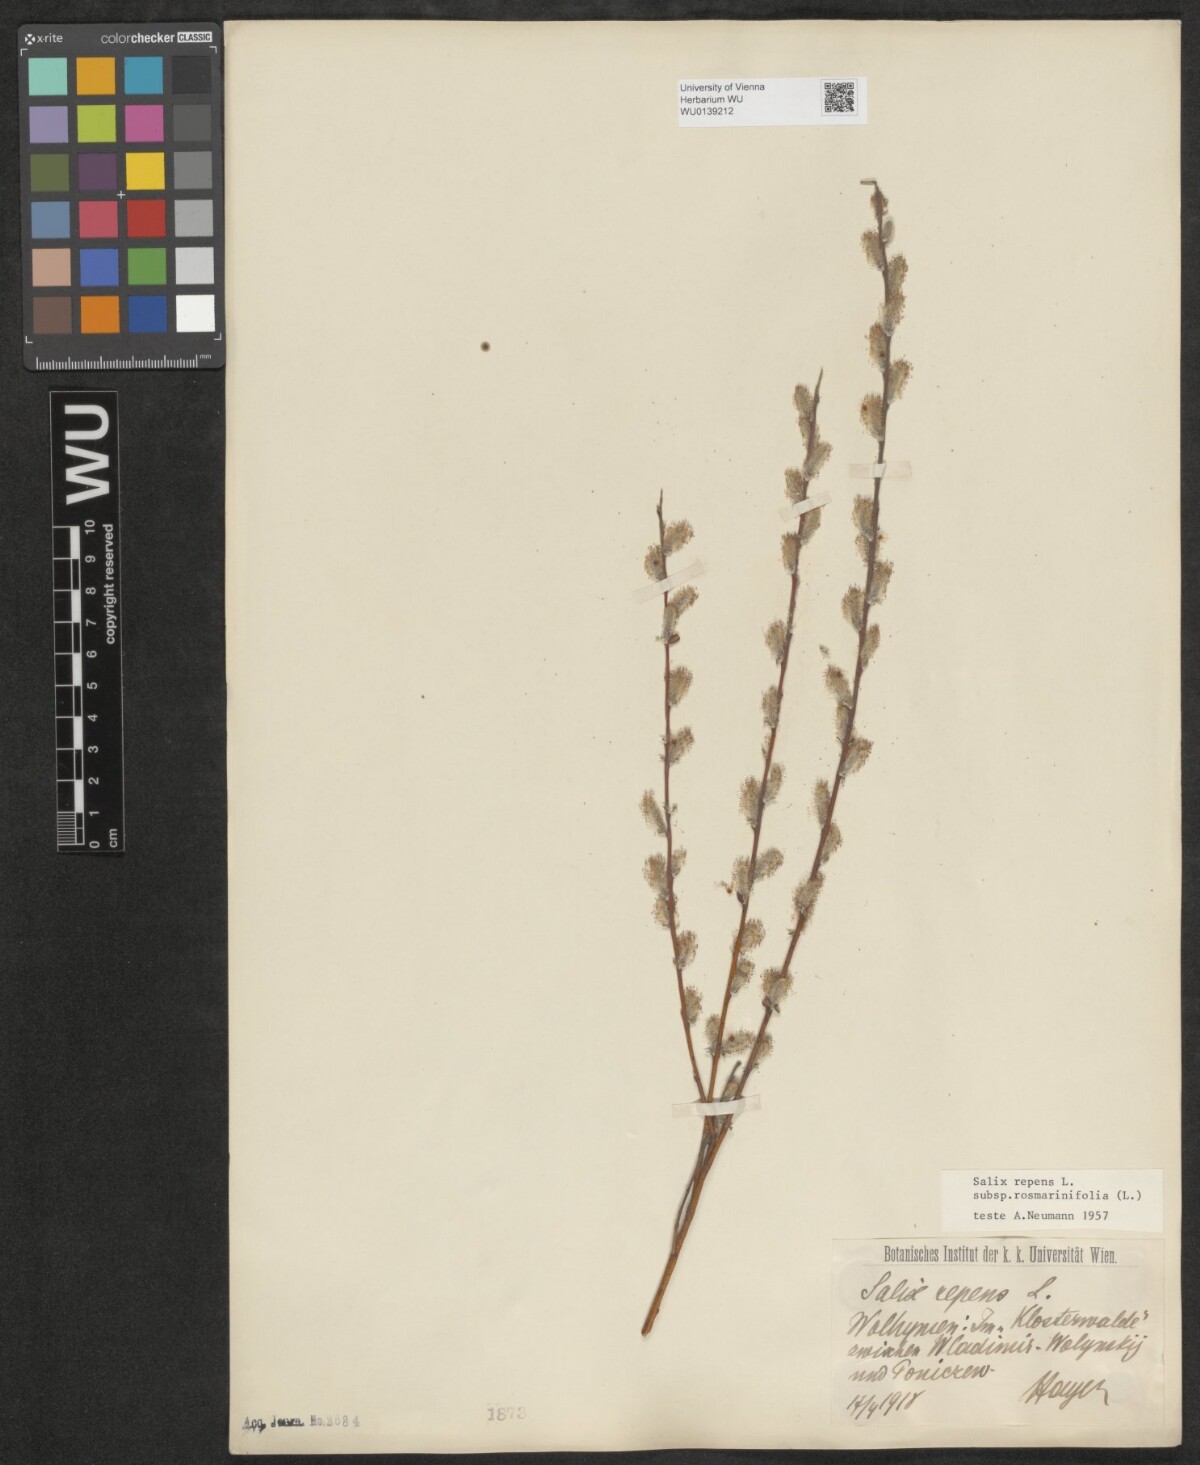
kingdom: Plantae
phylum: Tracheophyta
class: Magnoliopsida
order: Malpighiales
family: Salicaceae
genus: Salix
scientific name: Salix repens
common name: Creeping willow
